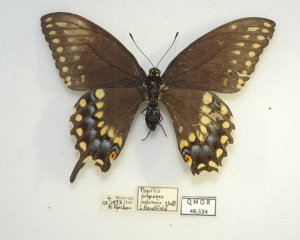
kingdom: Animalia
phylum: Arthropoda
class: Insecta
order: Lepidoptera
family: Papilionidae
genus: Papilio
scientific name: Papilio polyxenes
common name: Black Swallowtail
